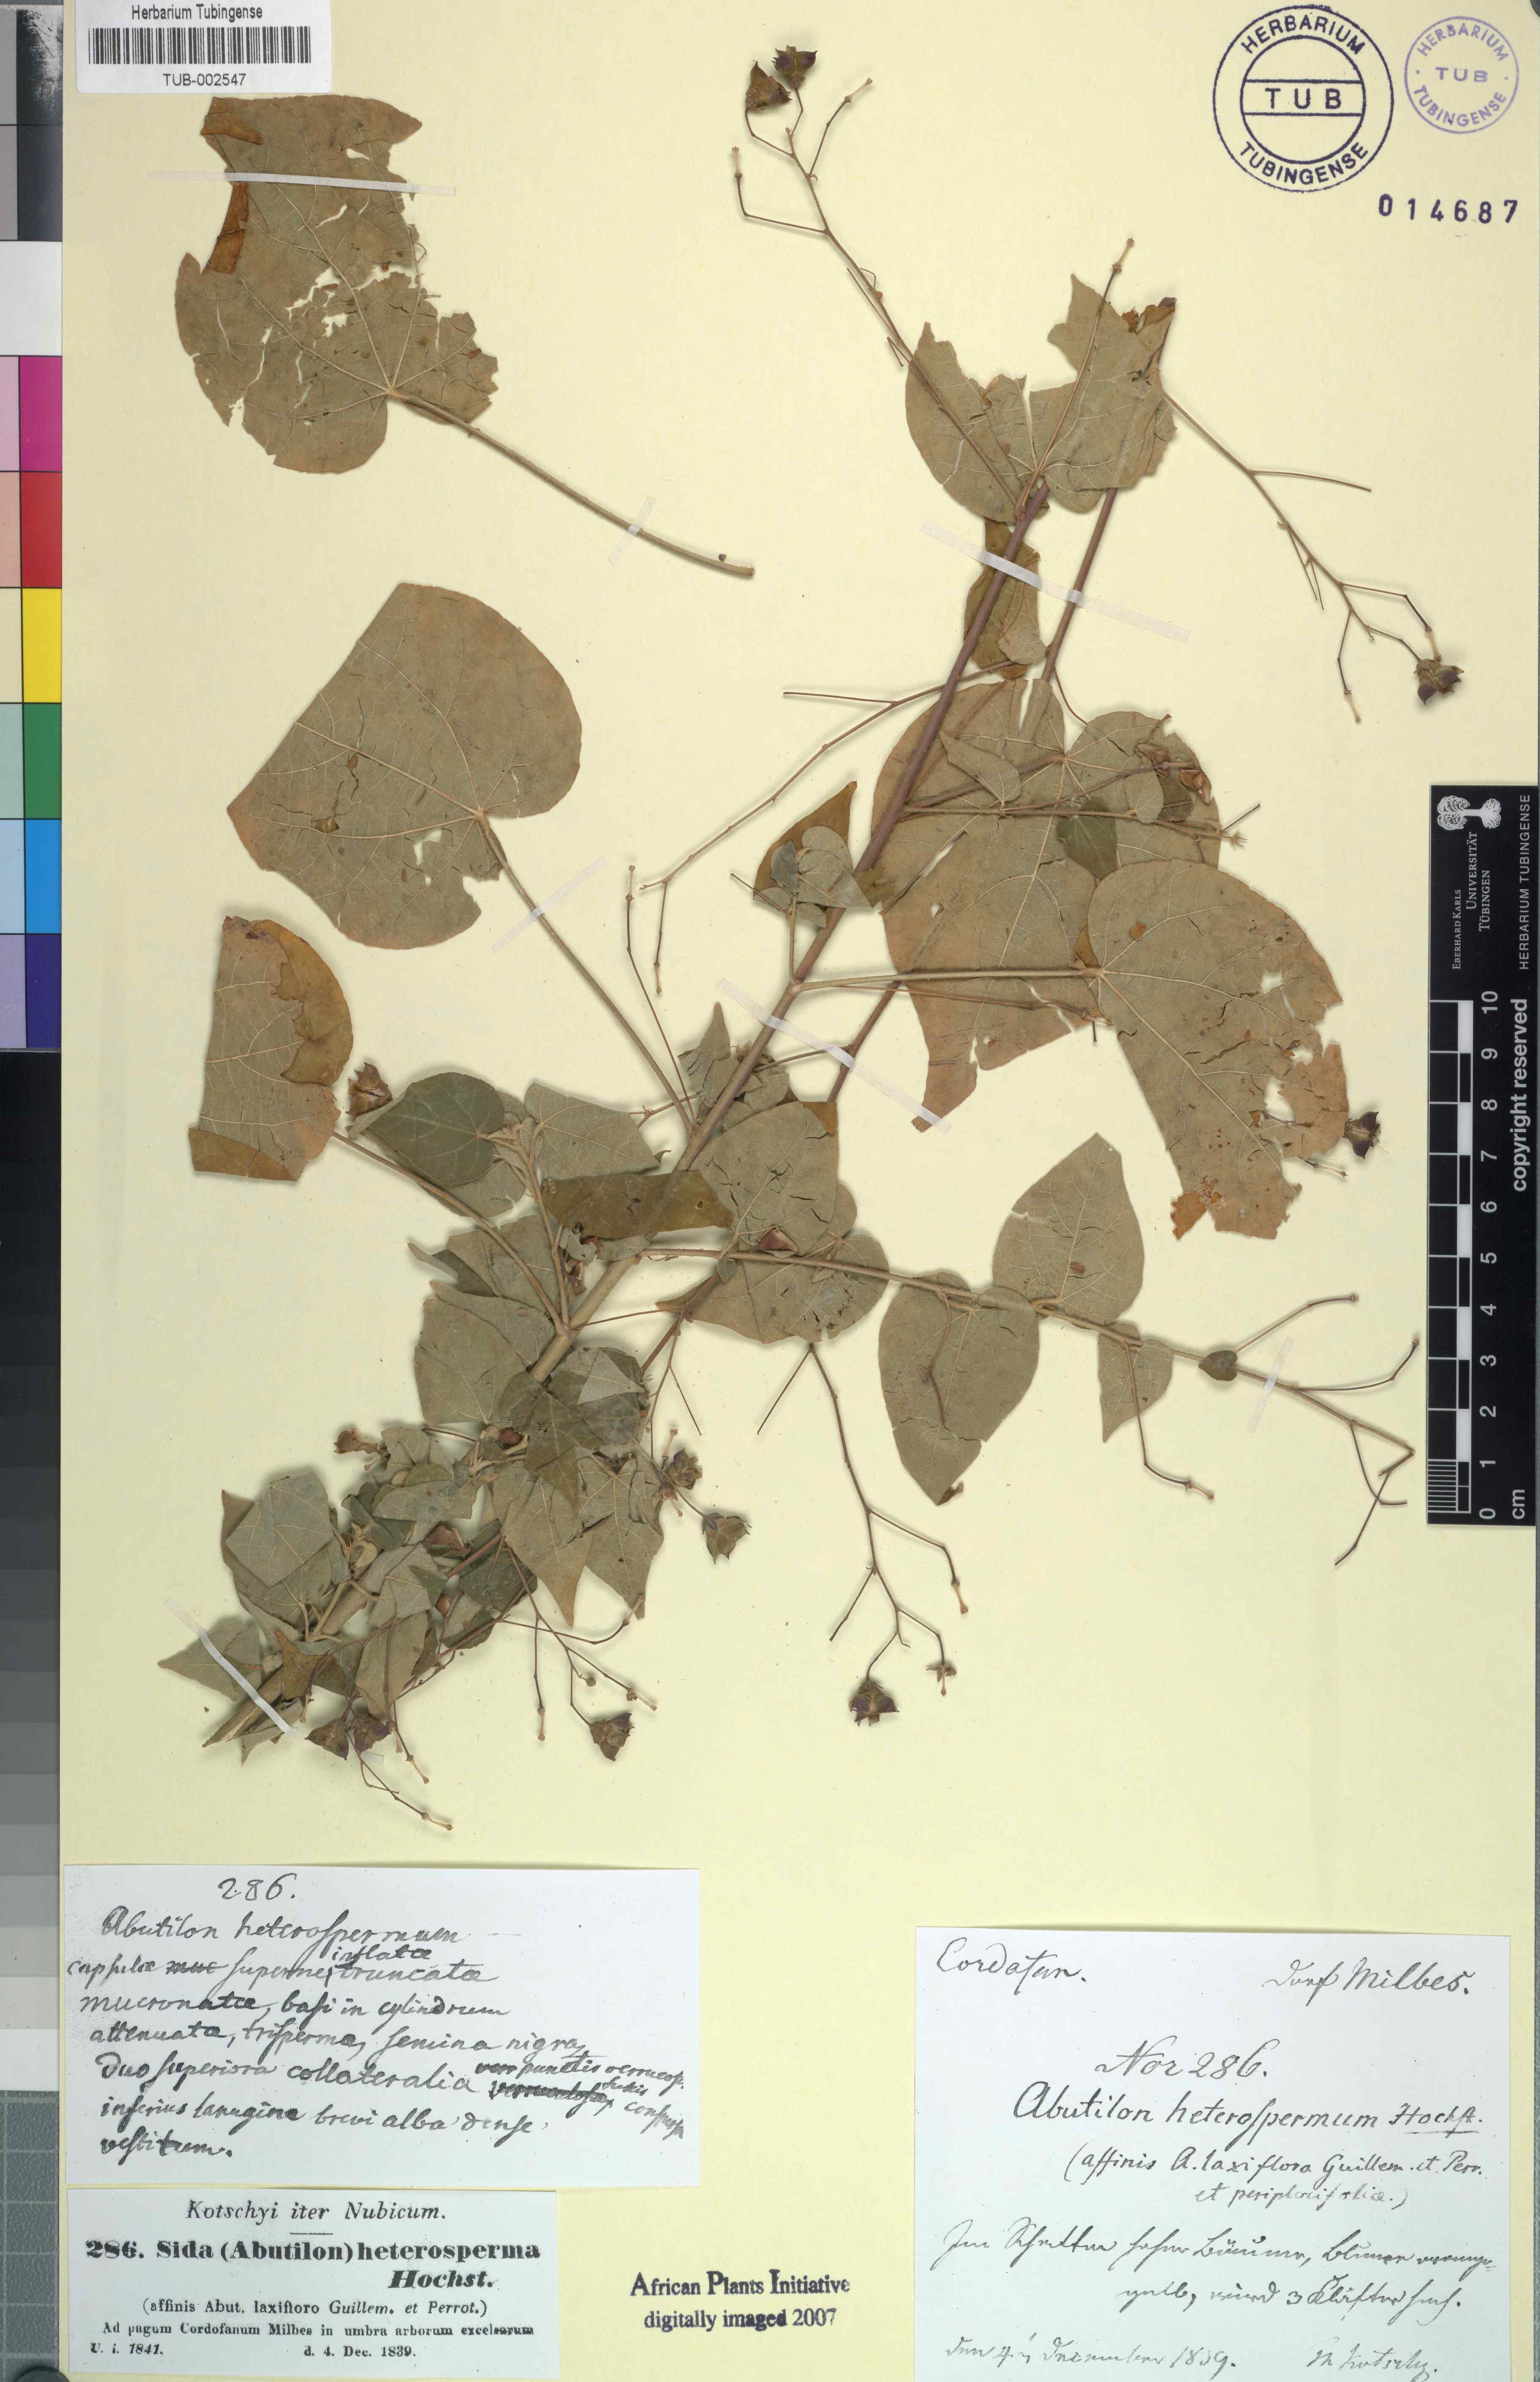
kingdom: Plantae
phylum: Tracheophyta
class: Magnoliopsida
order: Malvales
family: Malvaceae
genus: Wissadula
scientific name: Wissadula periplocifolia
